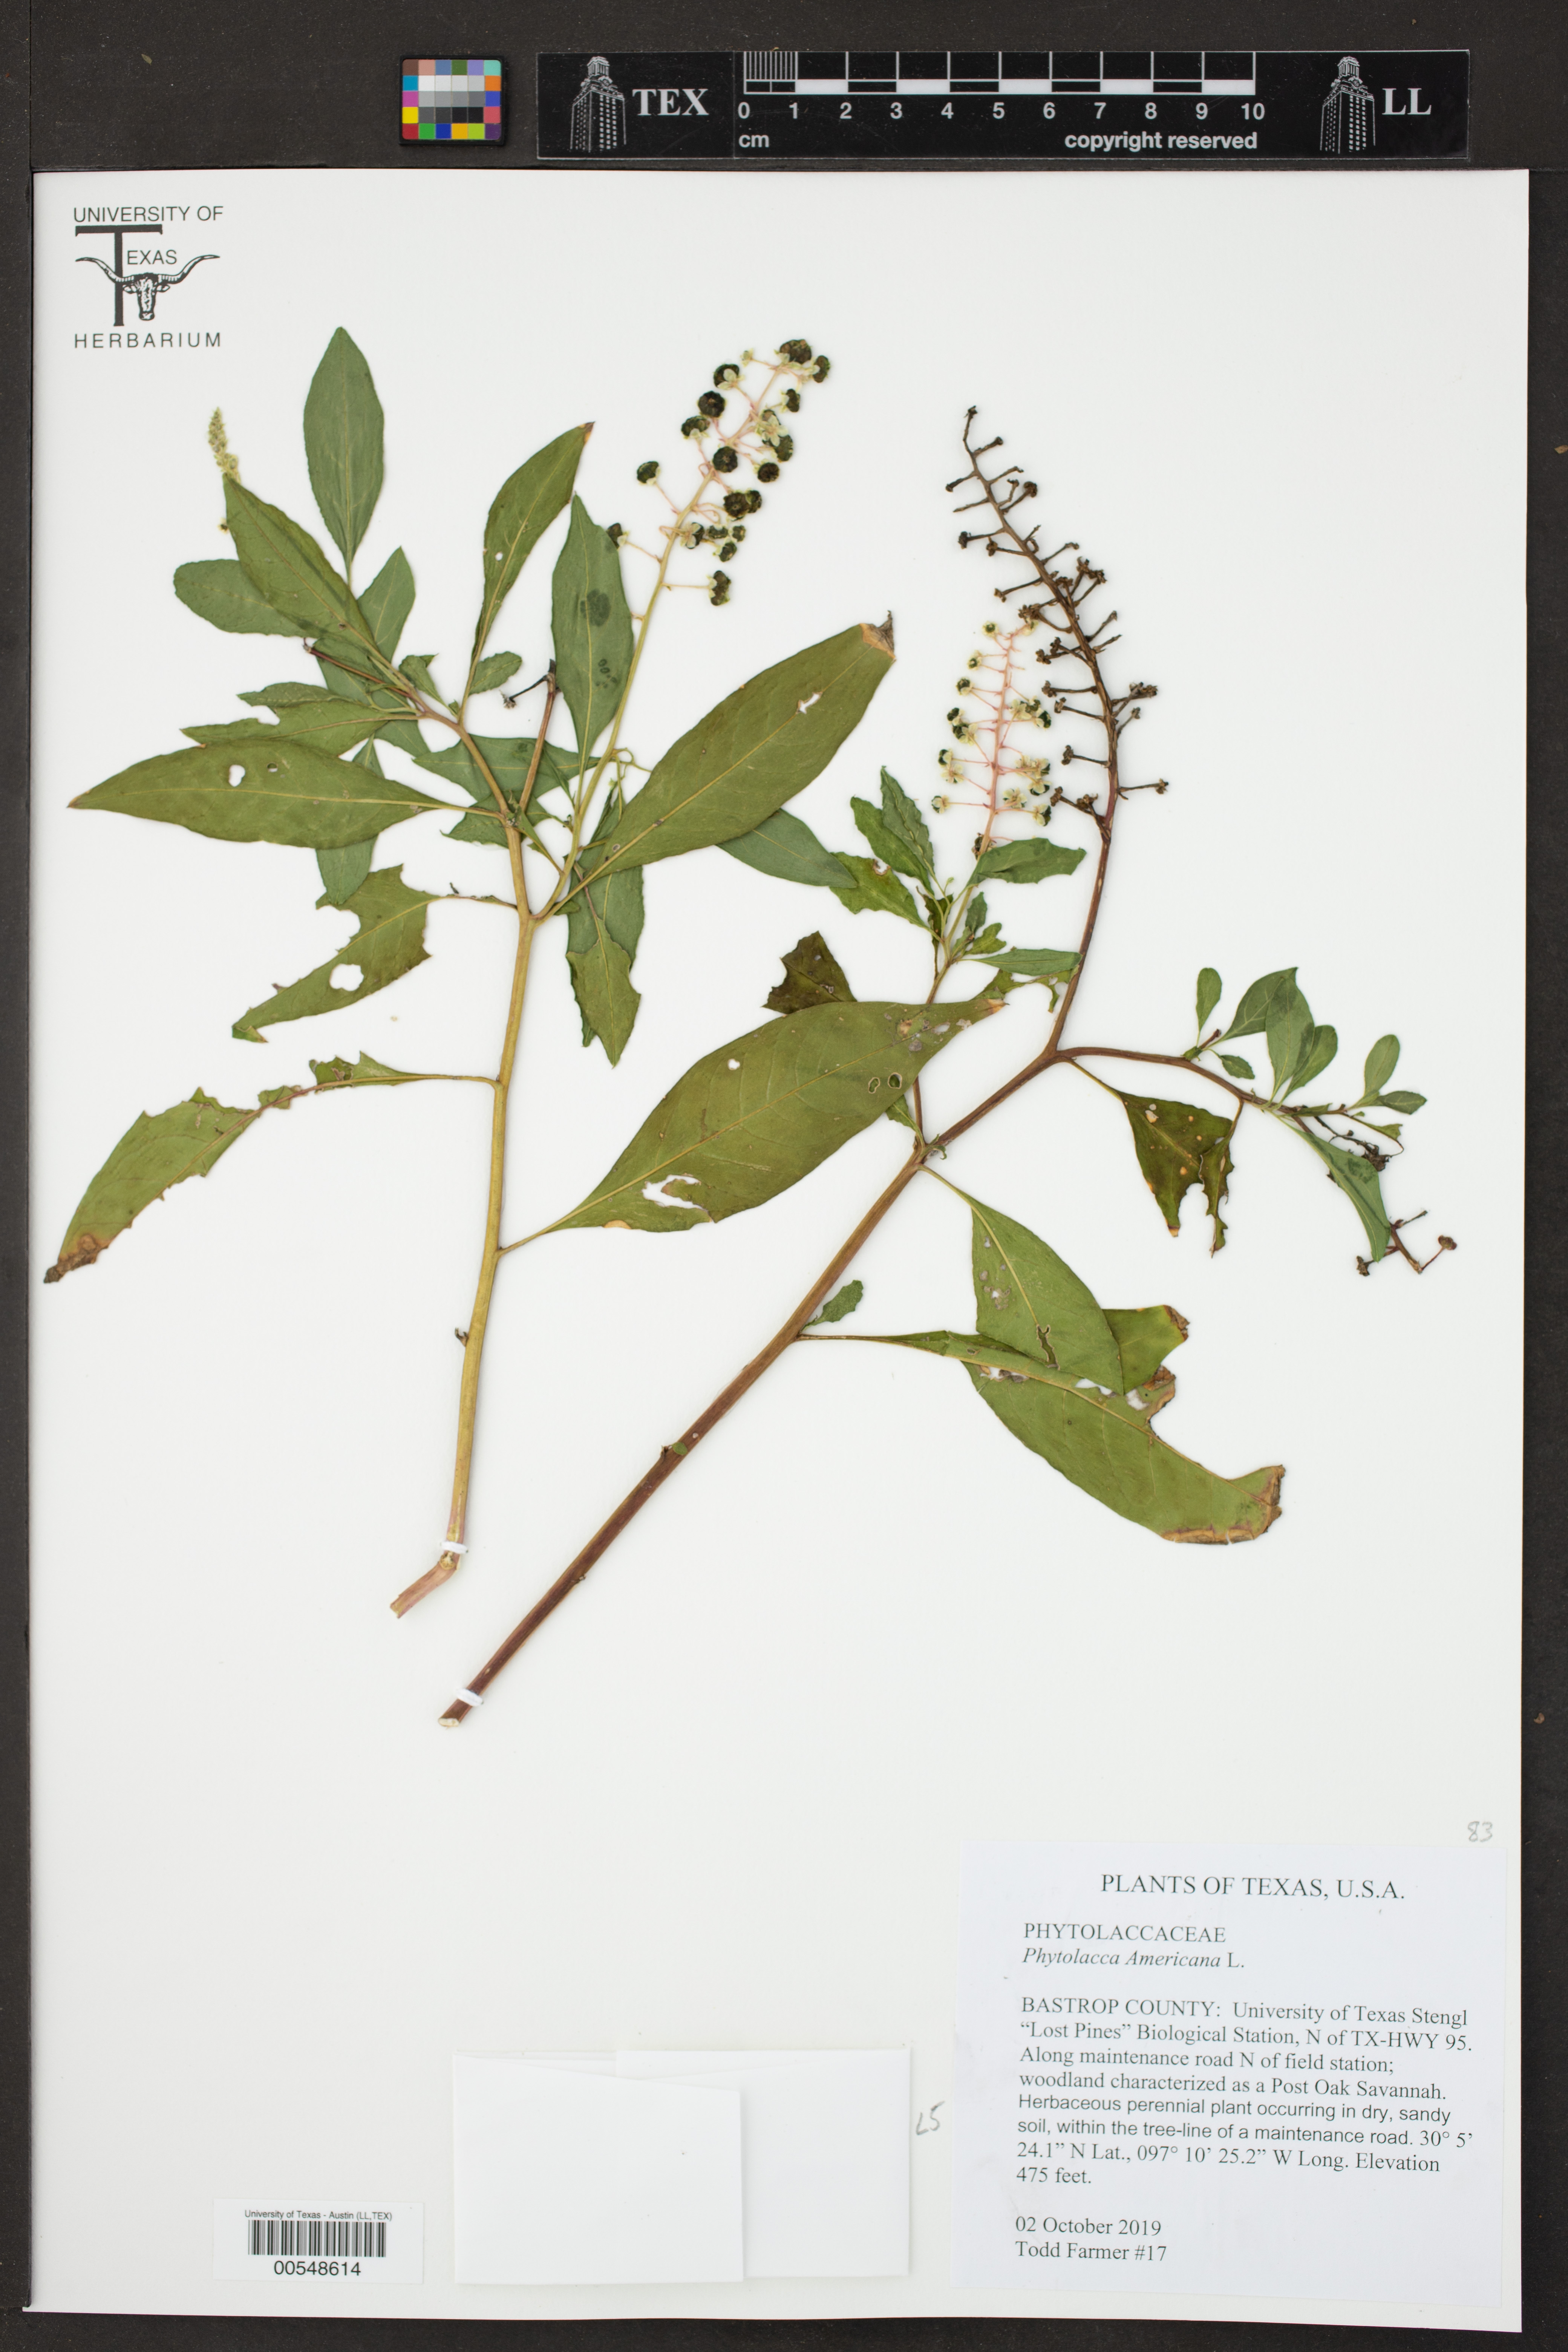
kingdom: Plantae
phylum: Tracheophyta
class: Magnoliopsida
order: Caryophyllales
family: Phytolaccaceae
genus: Phytolacca
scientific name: Phytolacca americana
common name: American pokeweed
